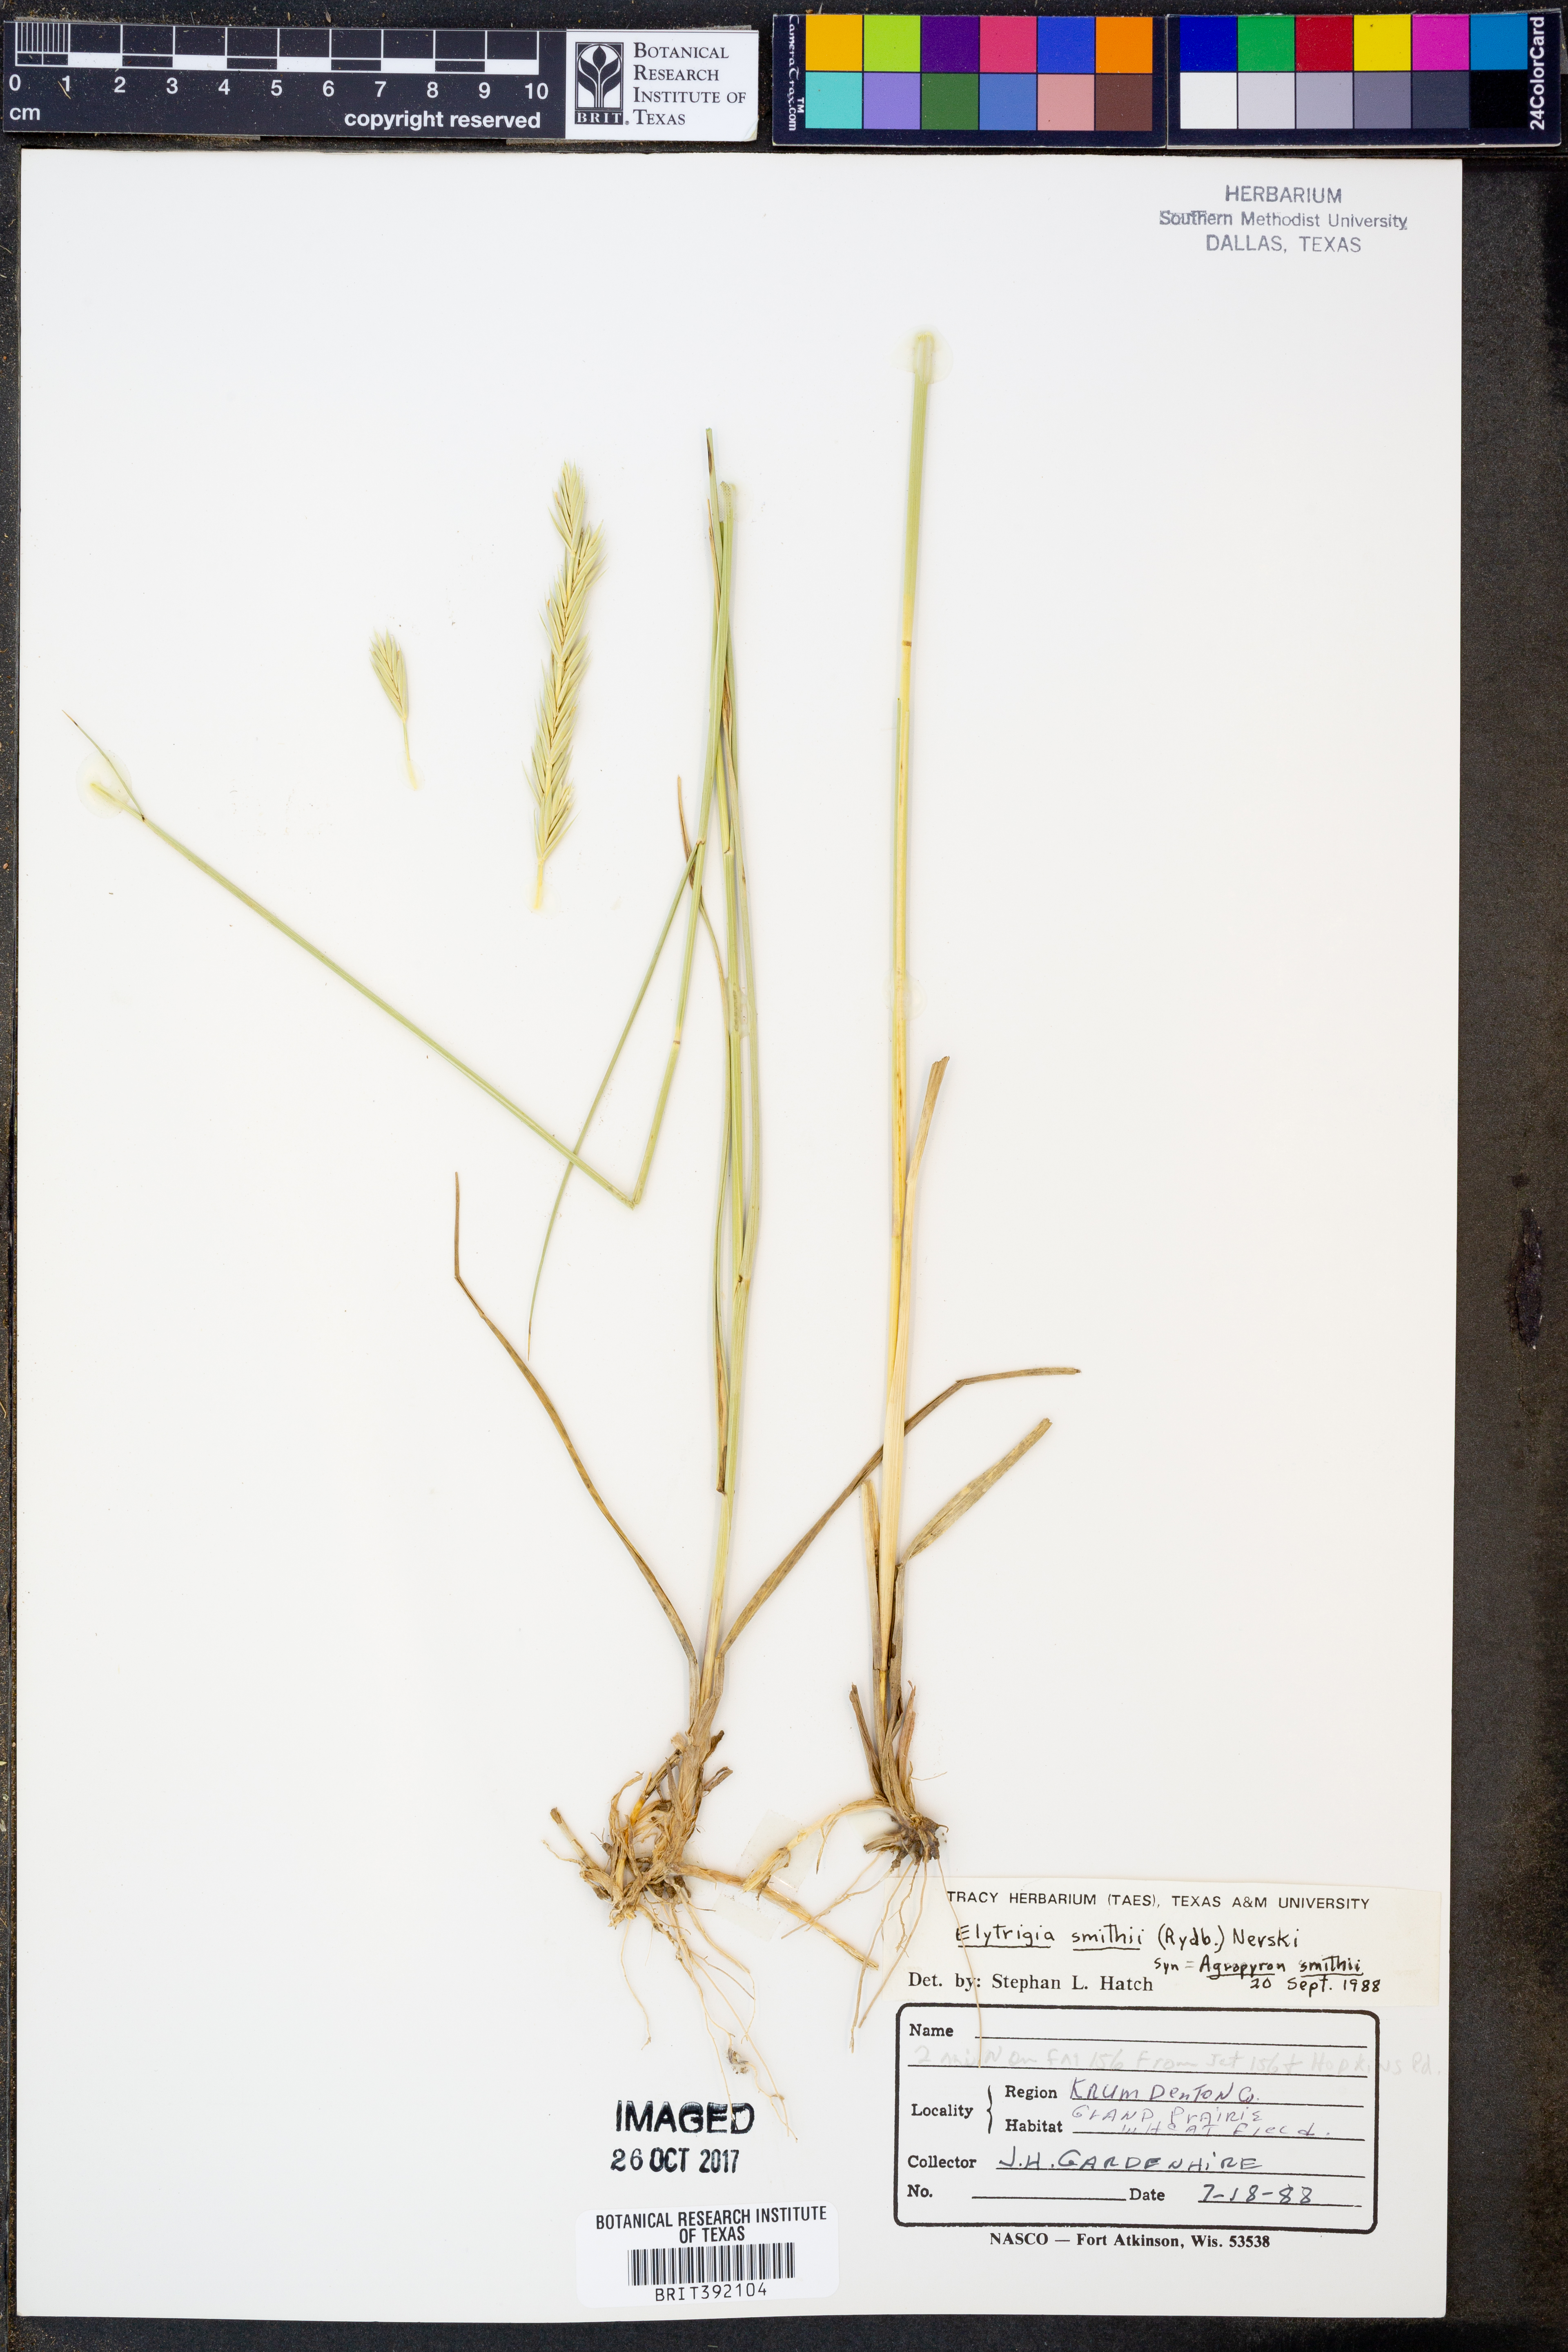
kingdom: Plantae
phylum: Tracheophyta
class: Liliopsida
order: Poales
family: Poaceae
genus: Elymus
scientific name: Elymus smithii
